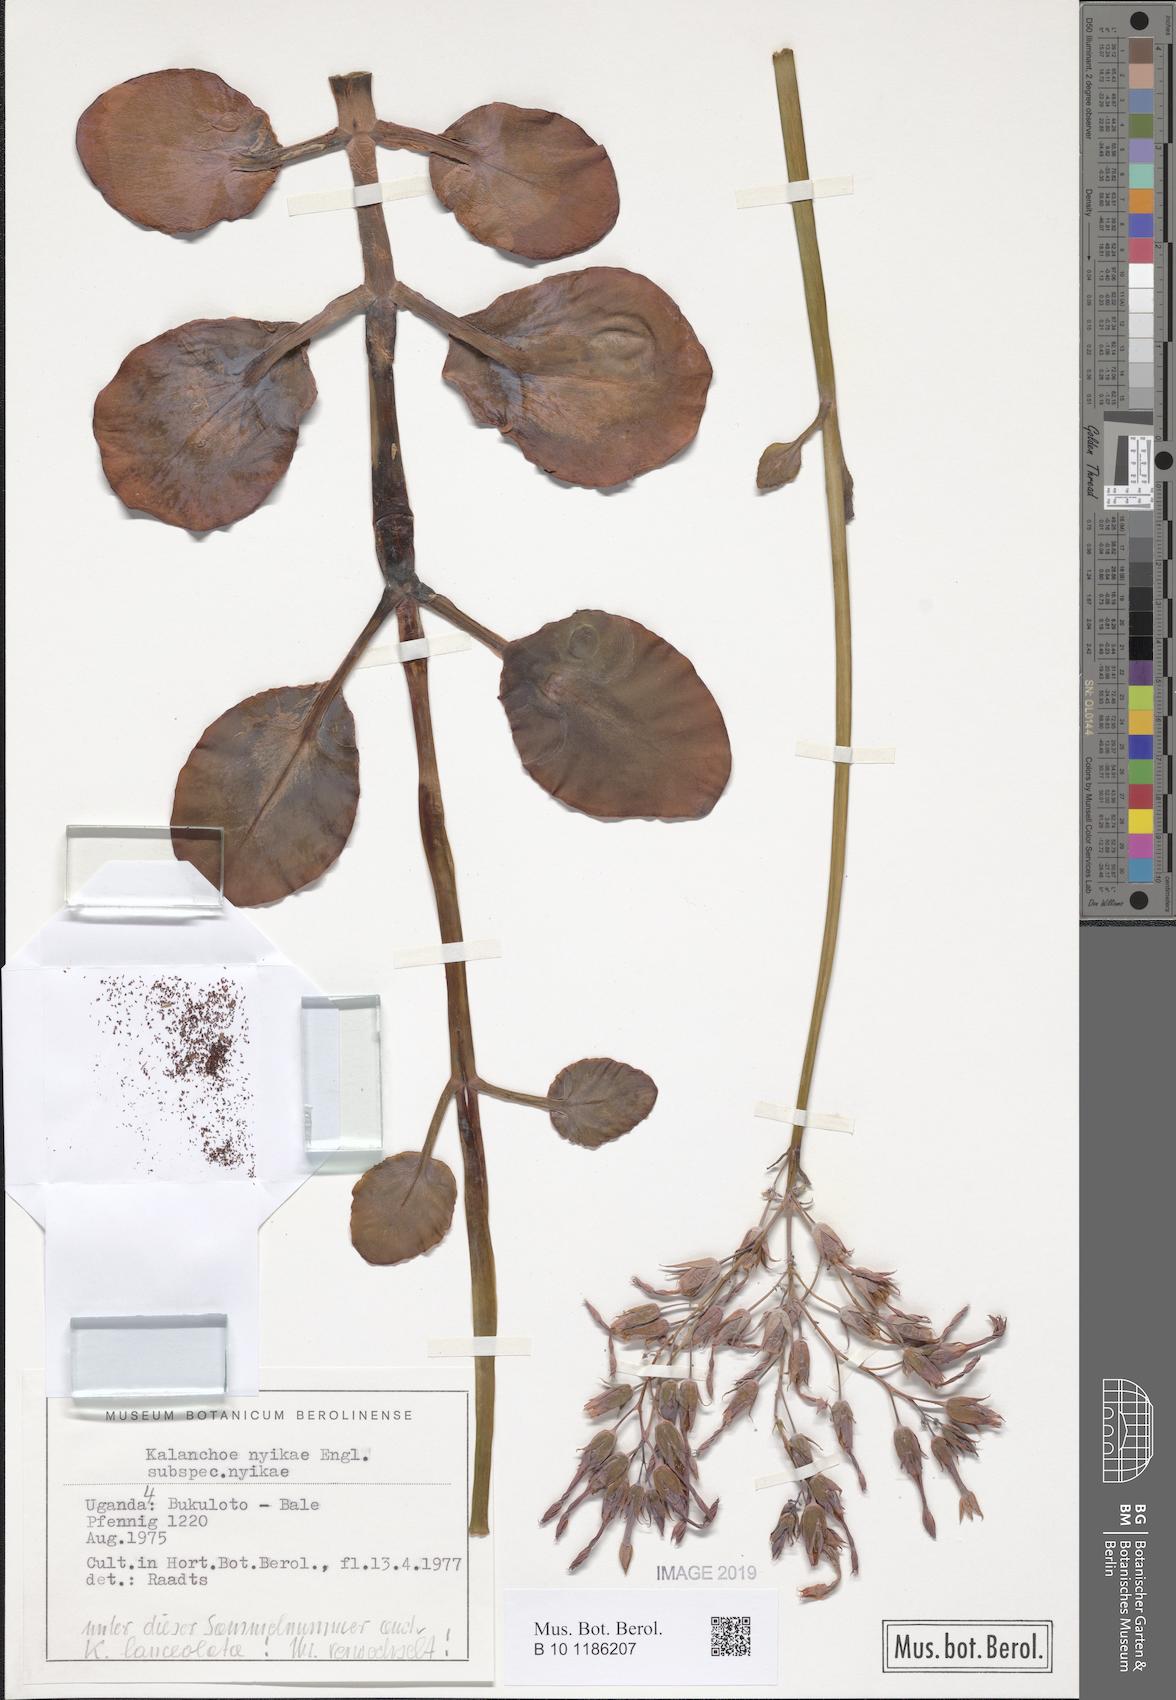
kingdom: Plantae
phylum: Tracheophyta
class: Magnoliopsida
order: Saxifragales
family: Crassulaceae
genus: Kalanchoe
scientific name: Kalanchoe nyikae
